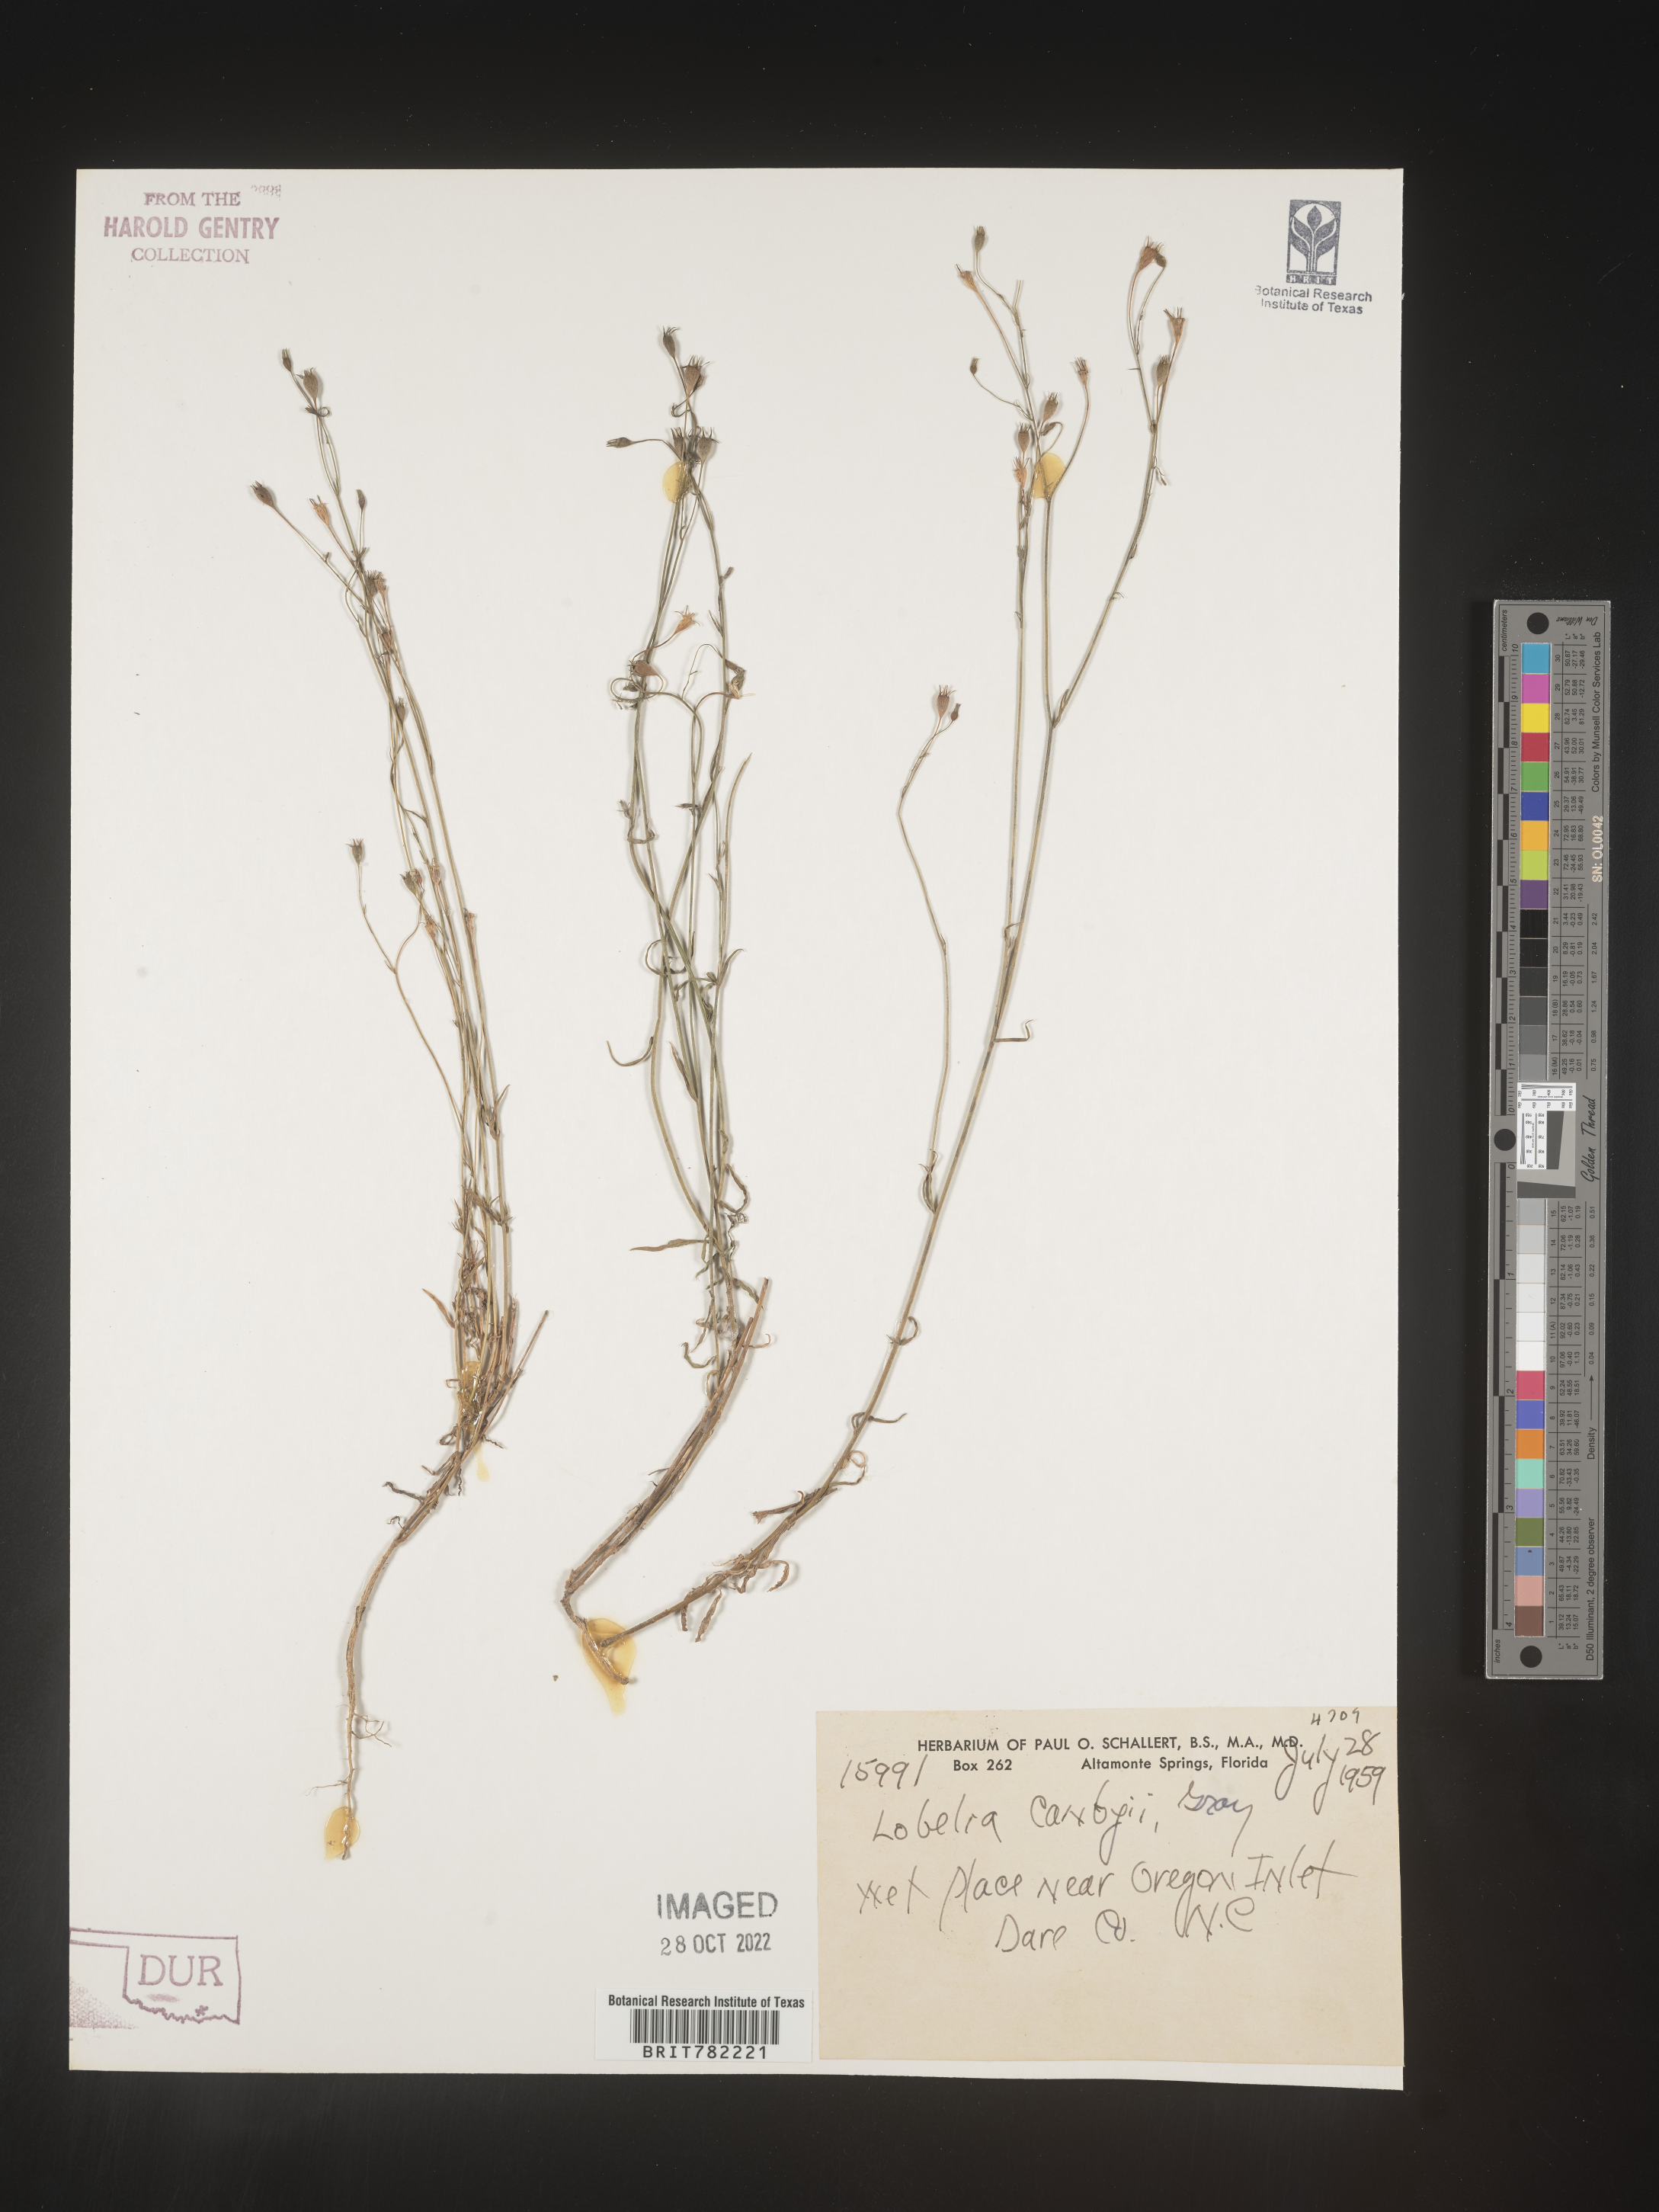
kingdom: Plantae
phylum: Tracheophyta
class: Magnoliopsida
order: Asterales
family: Campanulaceae
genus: Lobelia
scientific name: Lobelia
